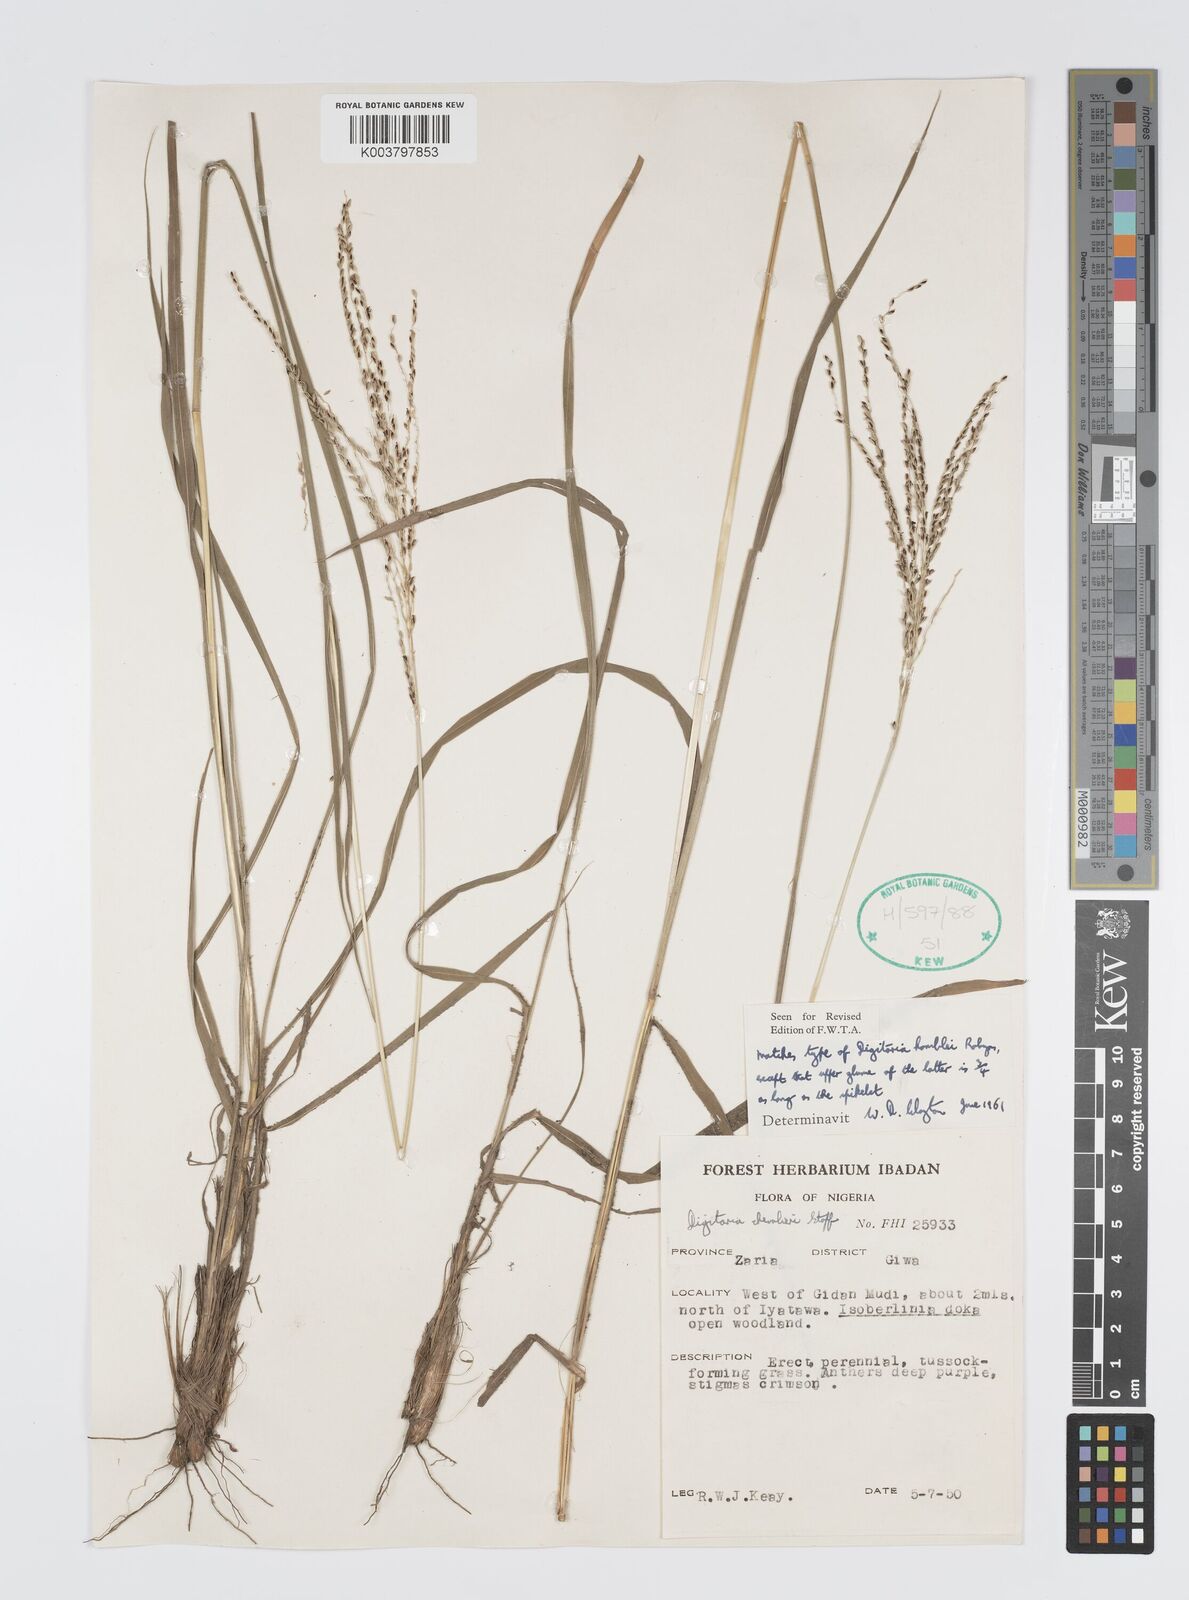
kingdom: Plantae
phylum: Tracheophyta
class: Liliopsida
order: Poales
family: Poaceae
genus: Digitaria
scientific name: Digitaria compressa
